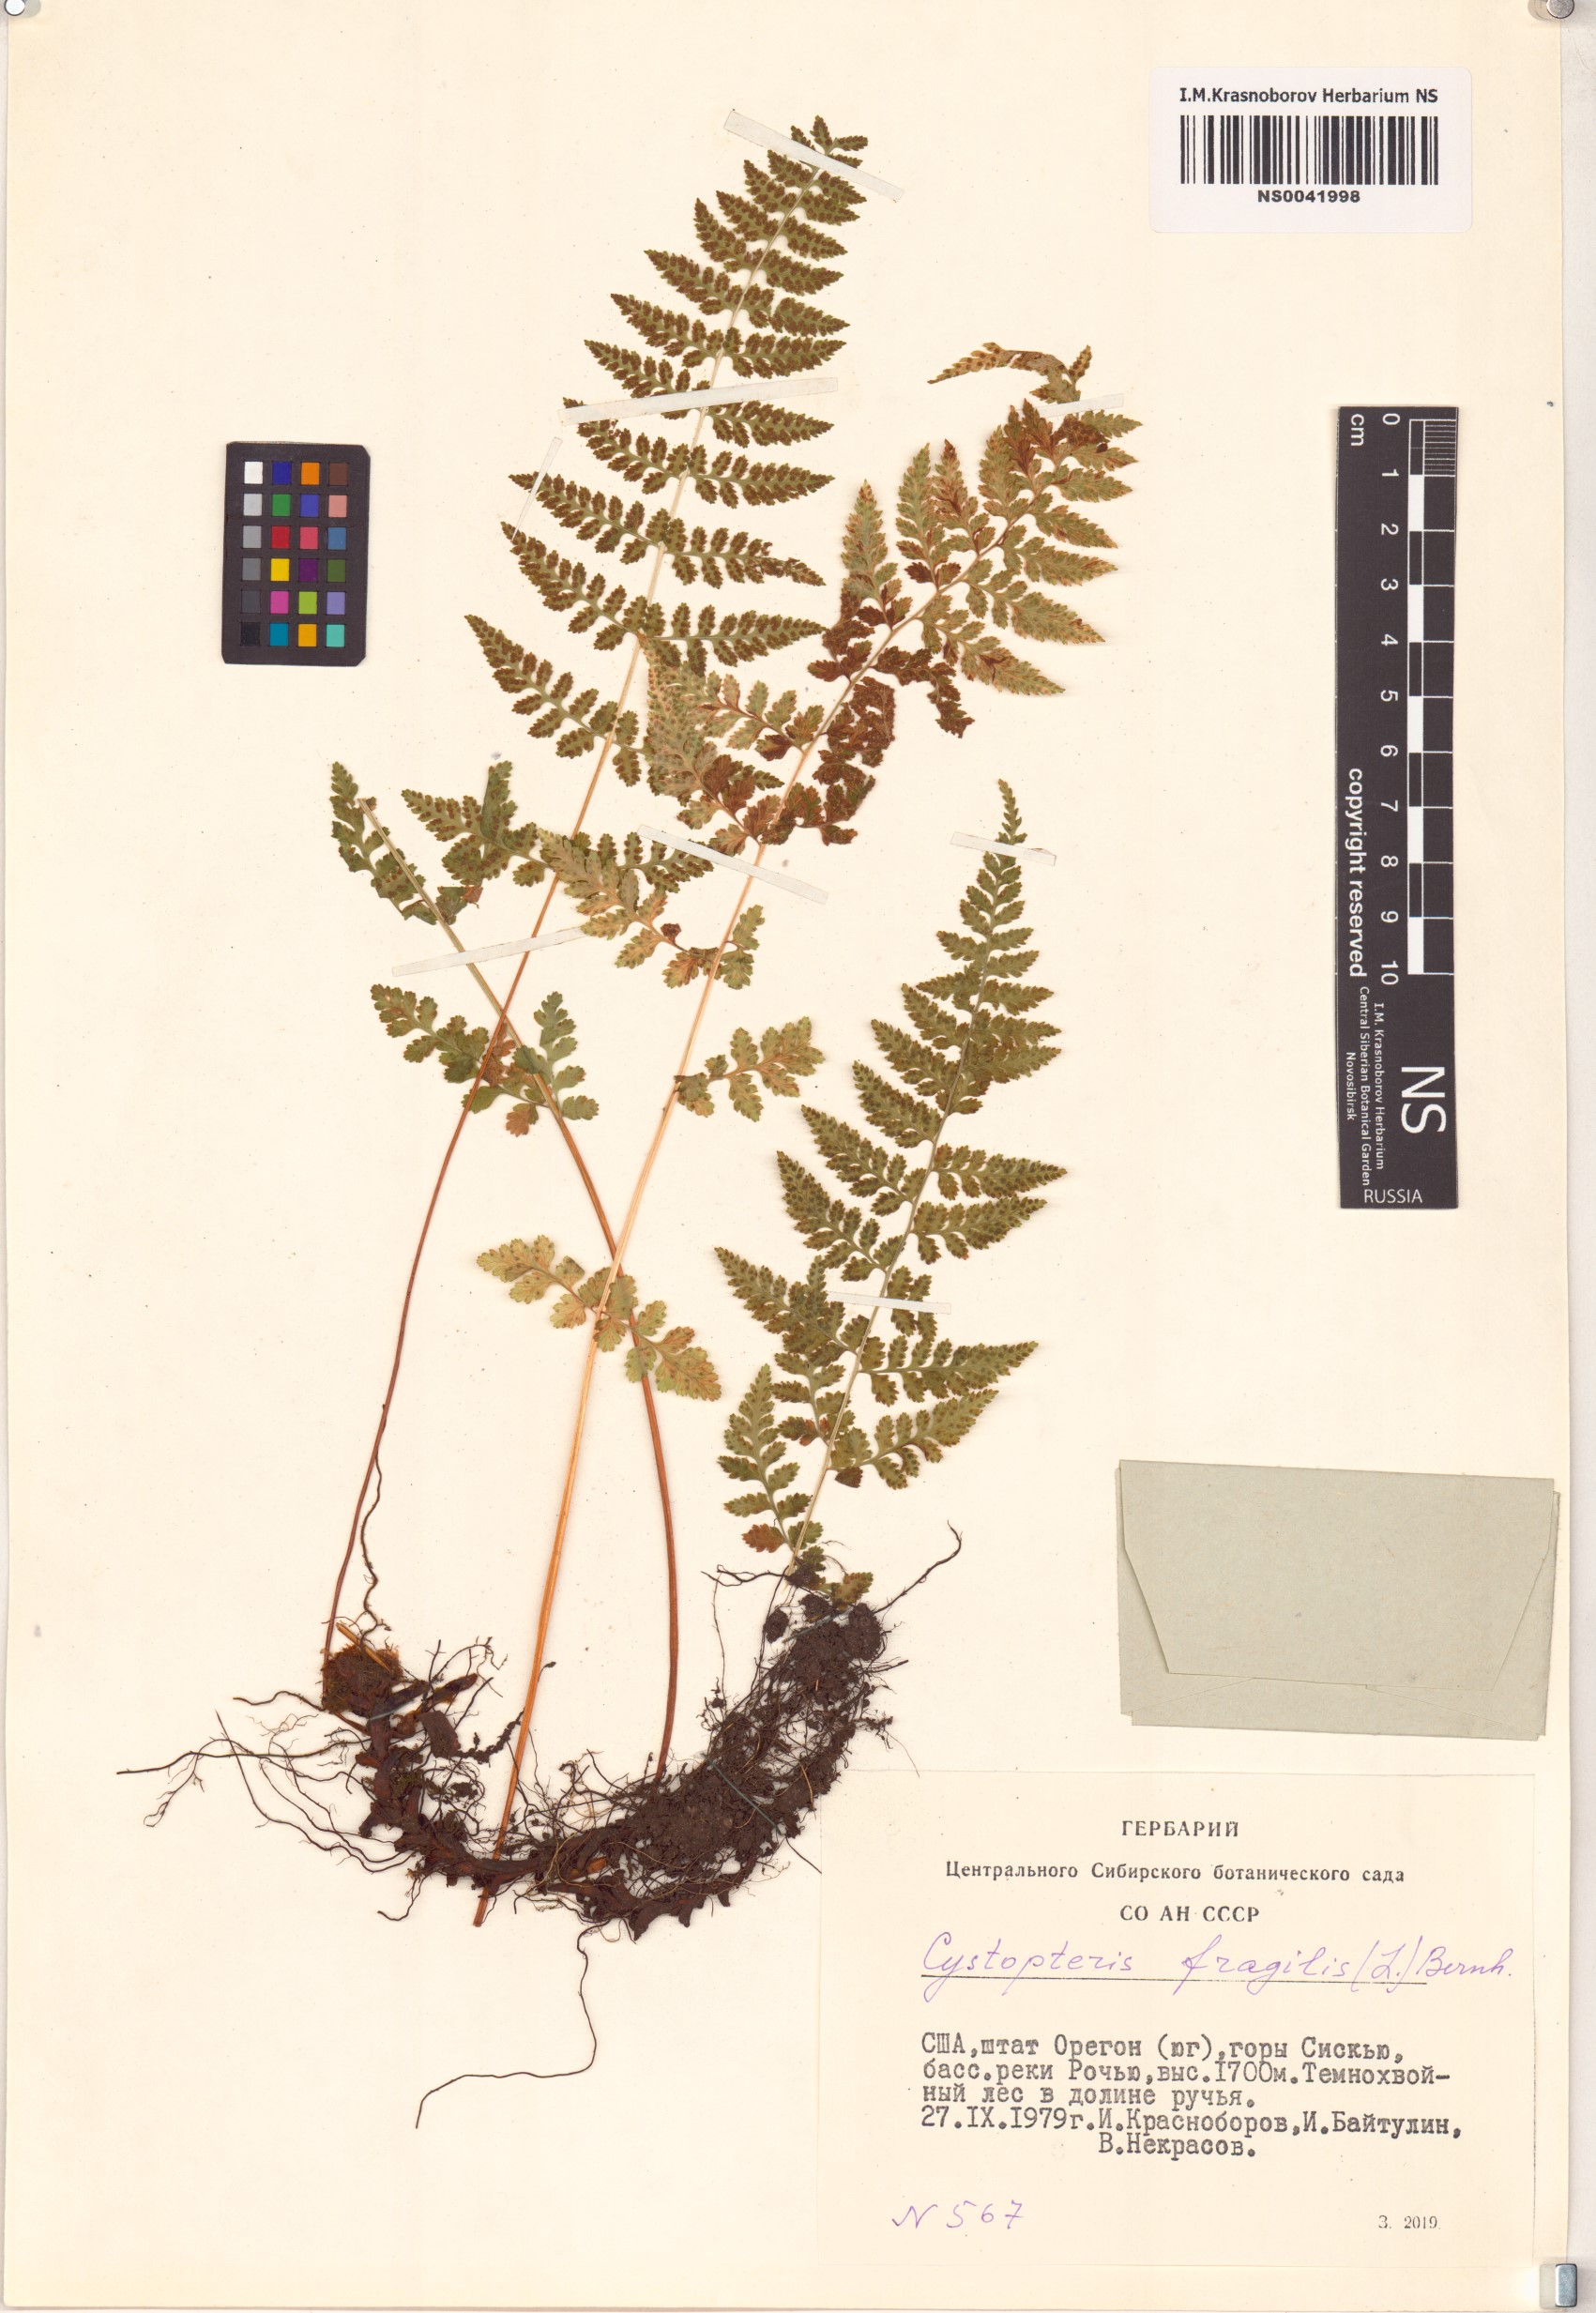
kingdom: Plantae
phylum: Tracheophyta
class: Polypodiopsida
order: Polypodiales
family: Cystopteridaceae
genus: Cystopteris
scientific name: Cystopteris fragilis
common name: Brittle bladder fern
